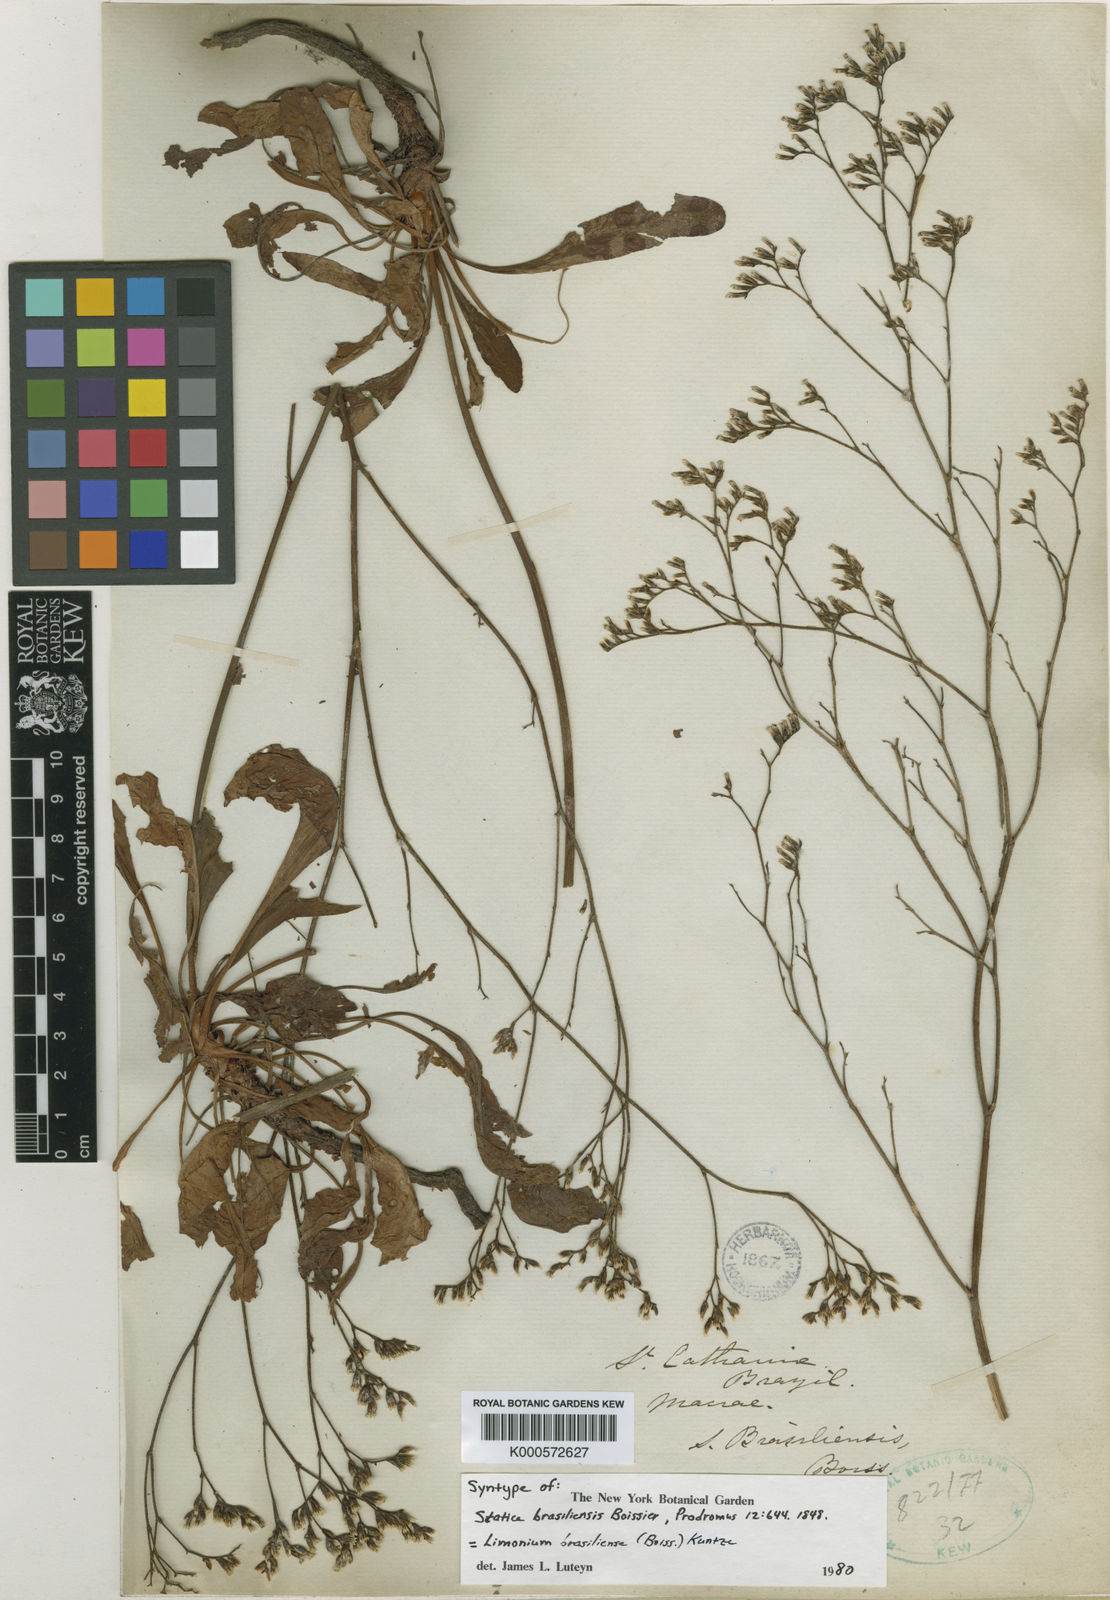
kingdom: Plantae
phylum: Tracheophyta
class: Magnoliopsida
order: Caryophyllales
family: Plumbaginaceae
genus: Limonium
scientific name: Limonium brasiliense
